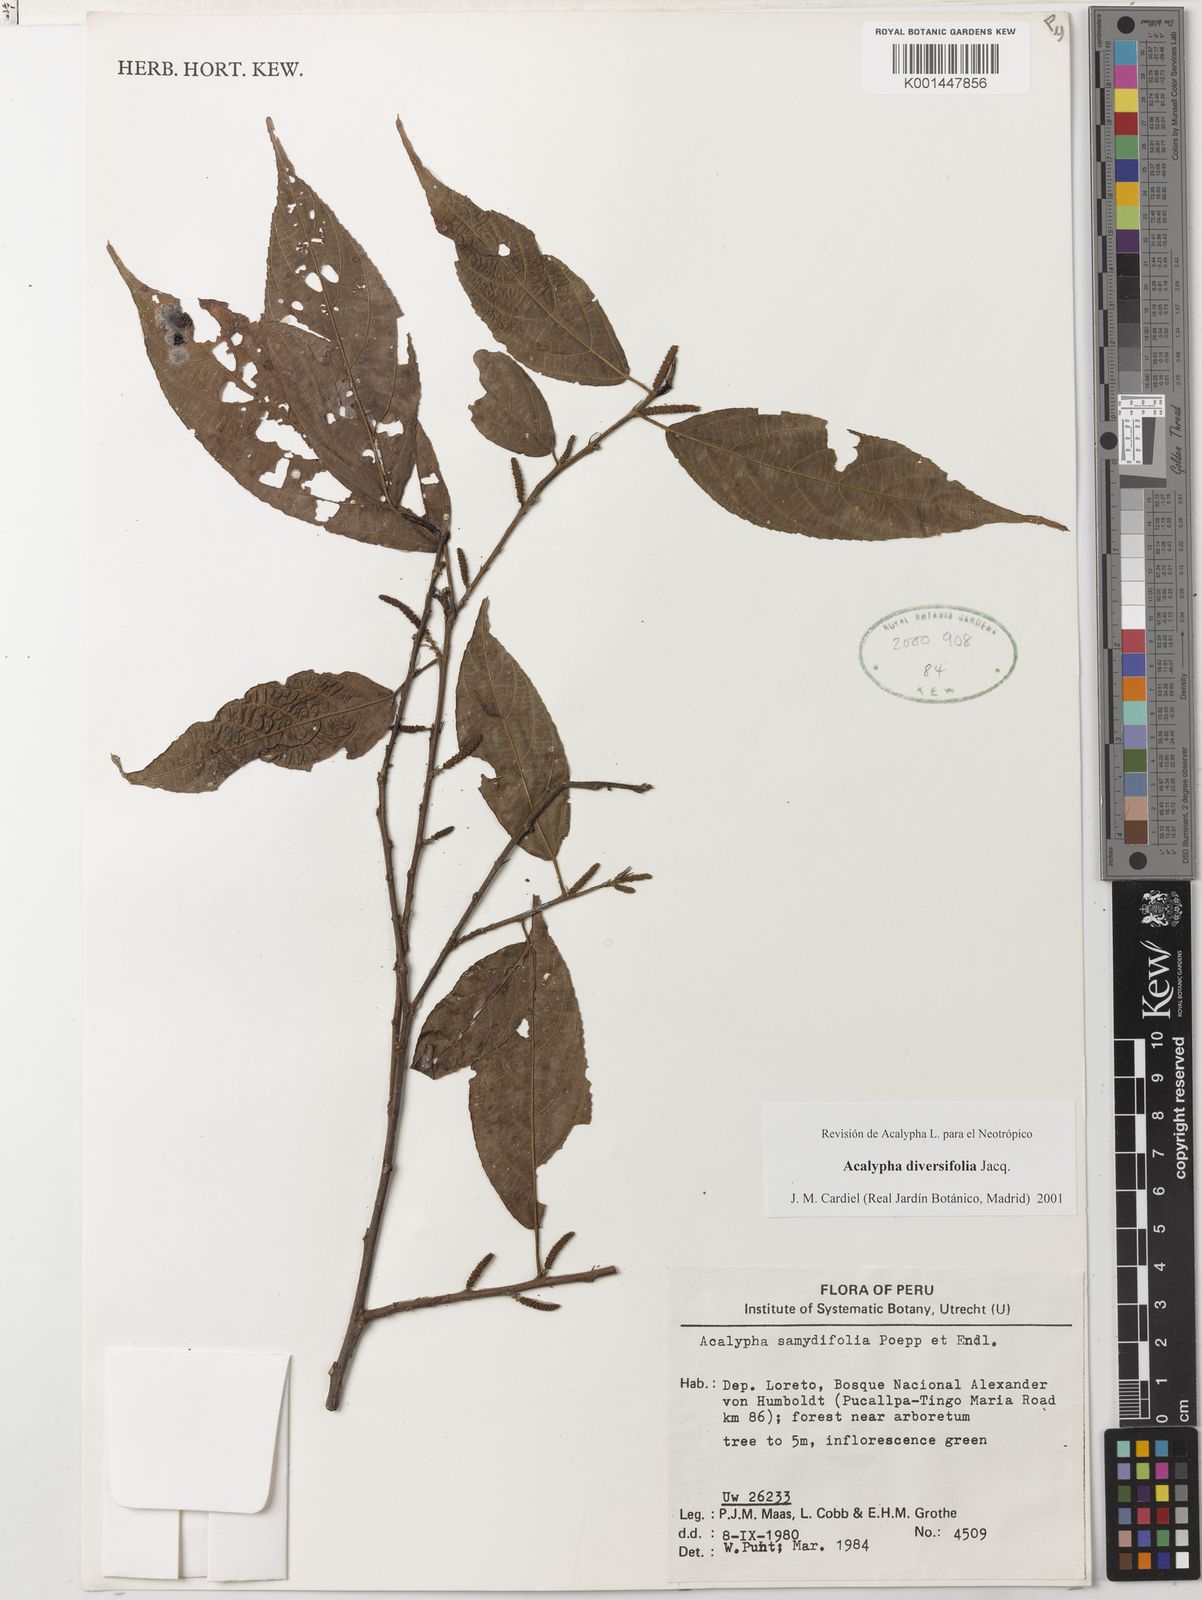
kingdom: Plantae
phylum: Tracheophyta
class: Magnoliopsida
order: Malpighiales
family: Euphorbiaceae
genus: Acalypha
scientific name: Acalypha diversifolia
